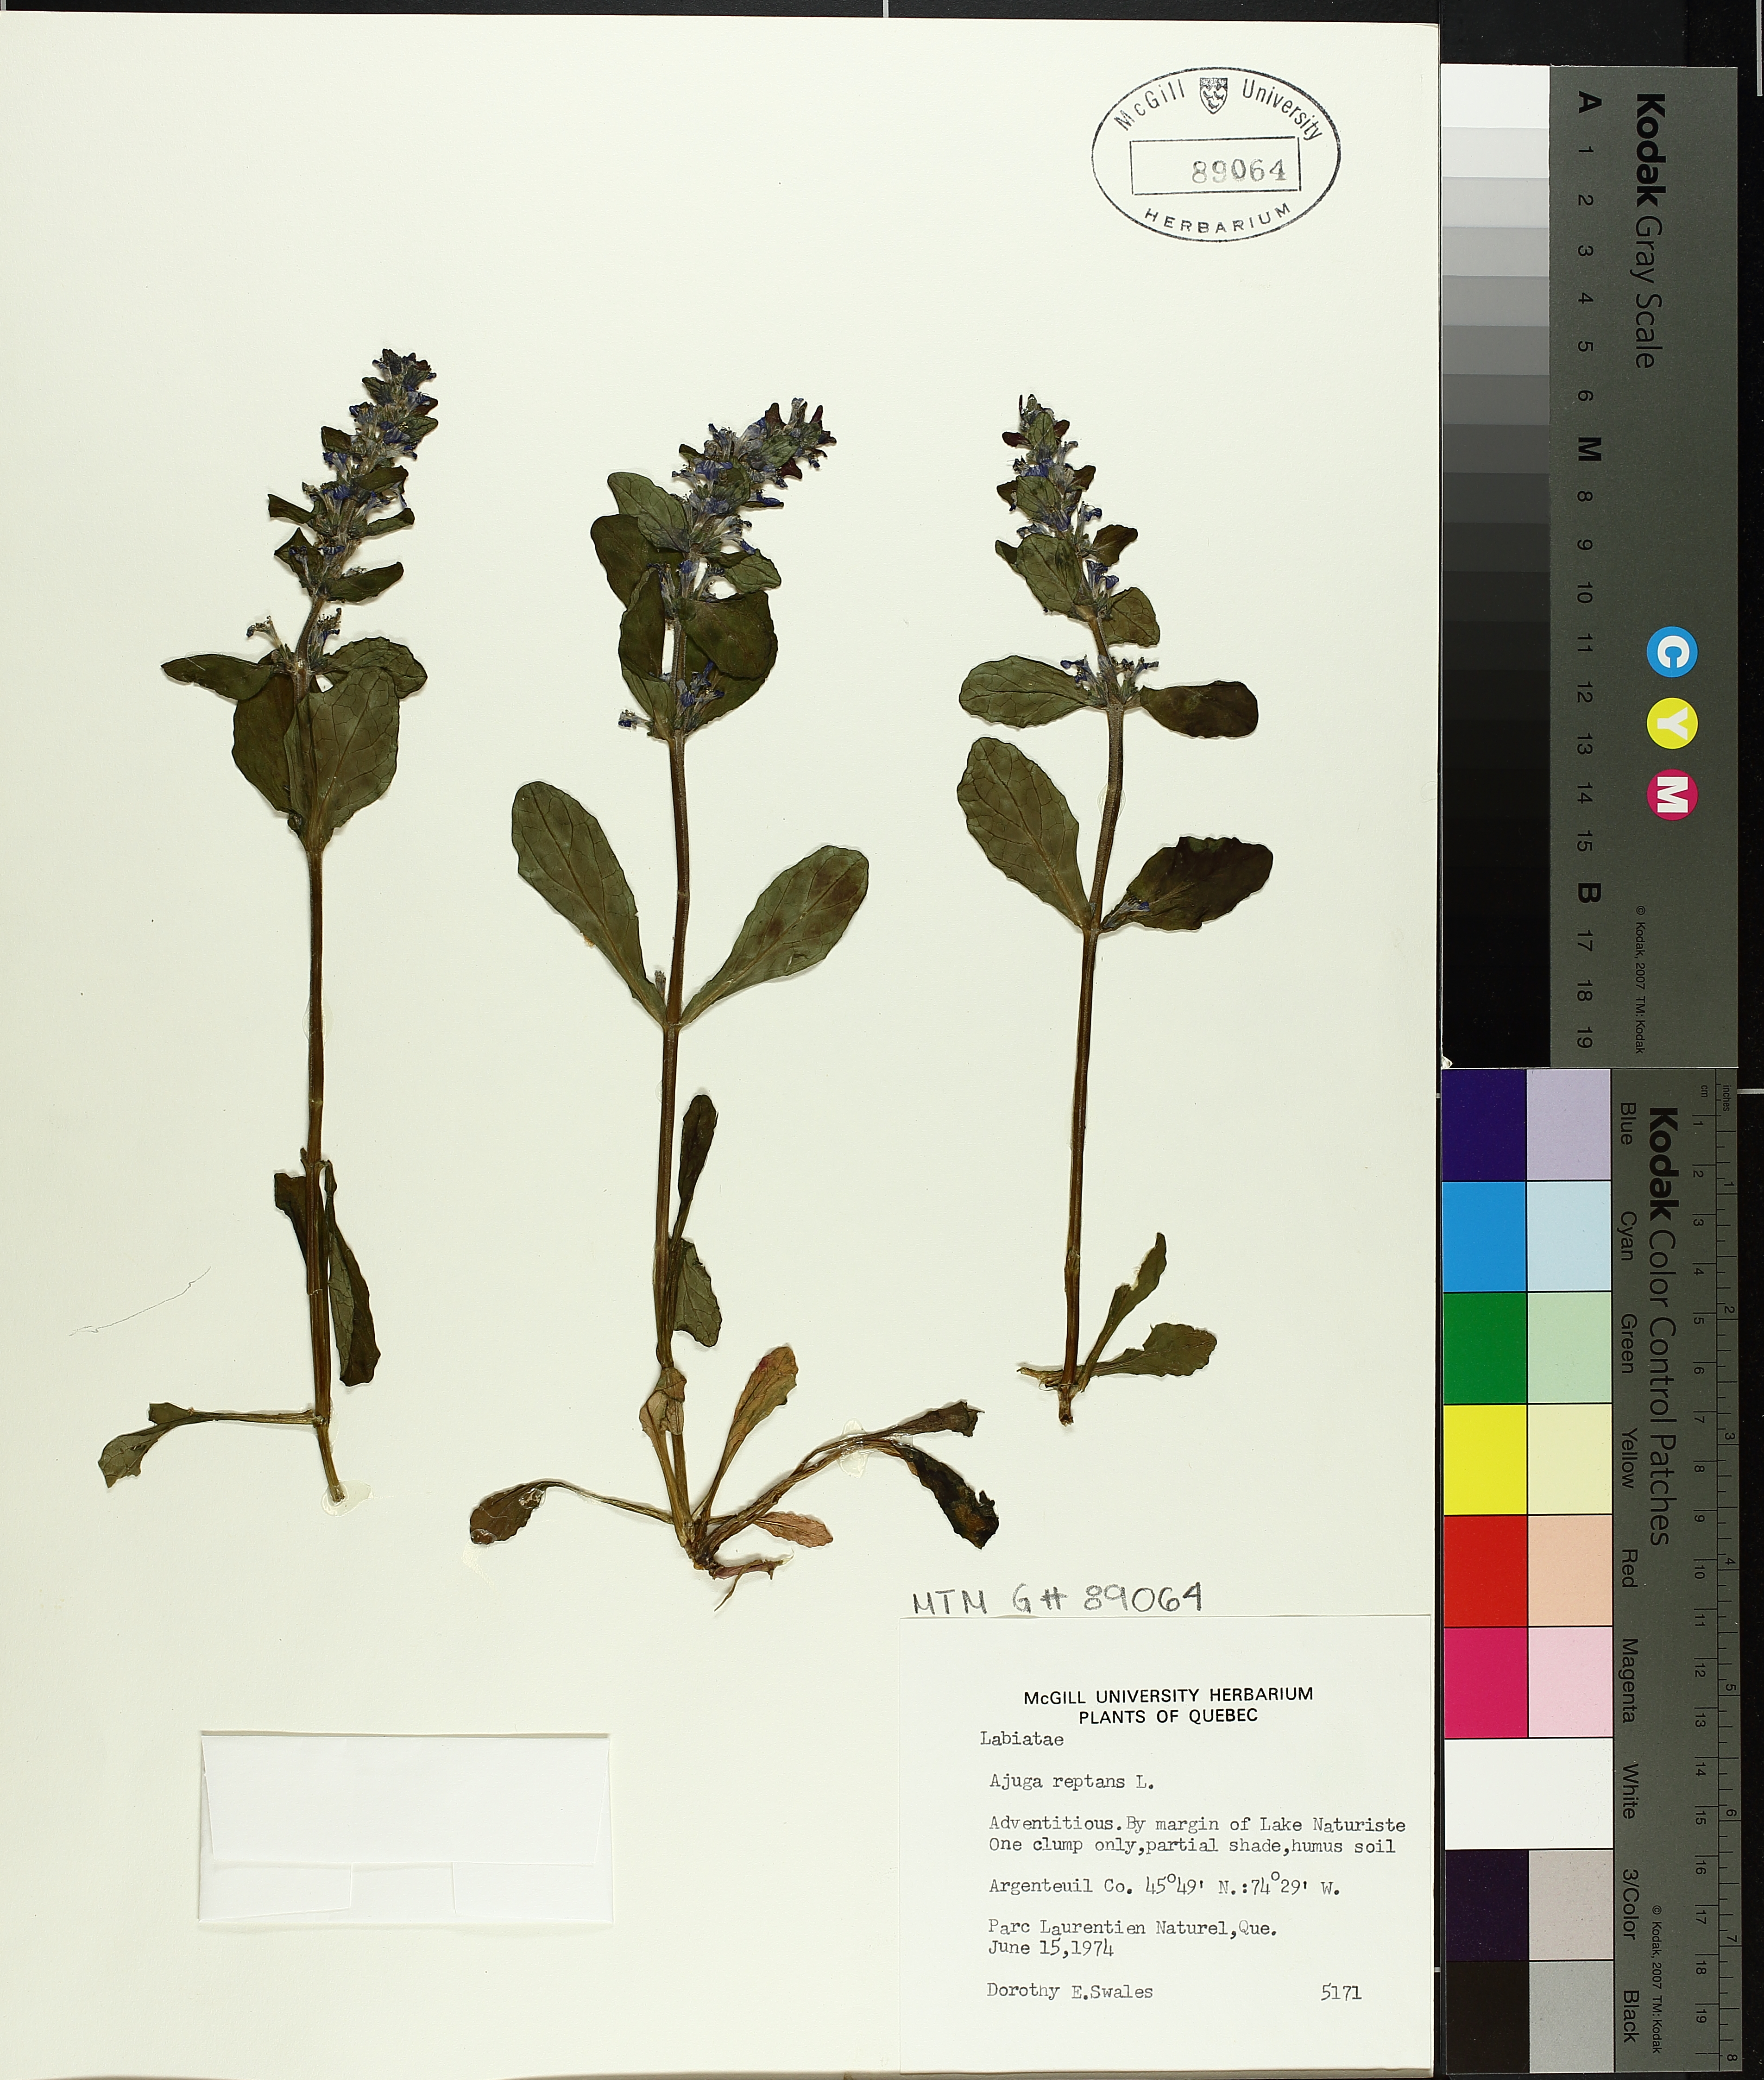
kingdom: Plantae
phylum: Tracheophyta
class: Magnoliopsida
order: Lamiales
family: Lamiaceae
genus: Ajuga
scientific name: Ajuga reptans
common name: Bugle
